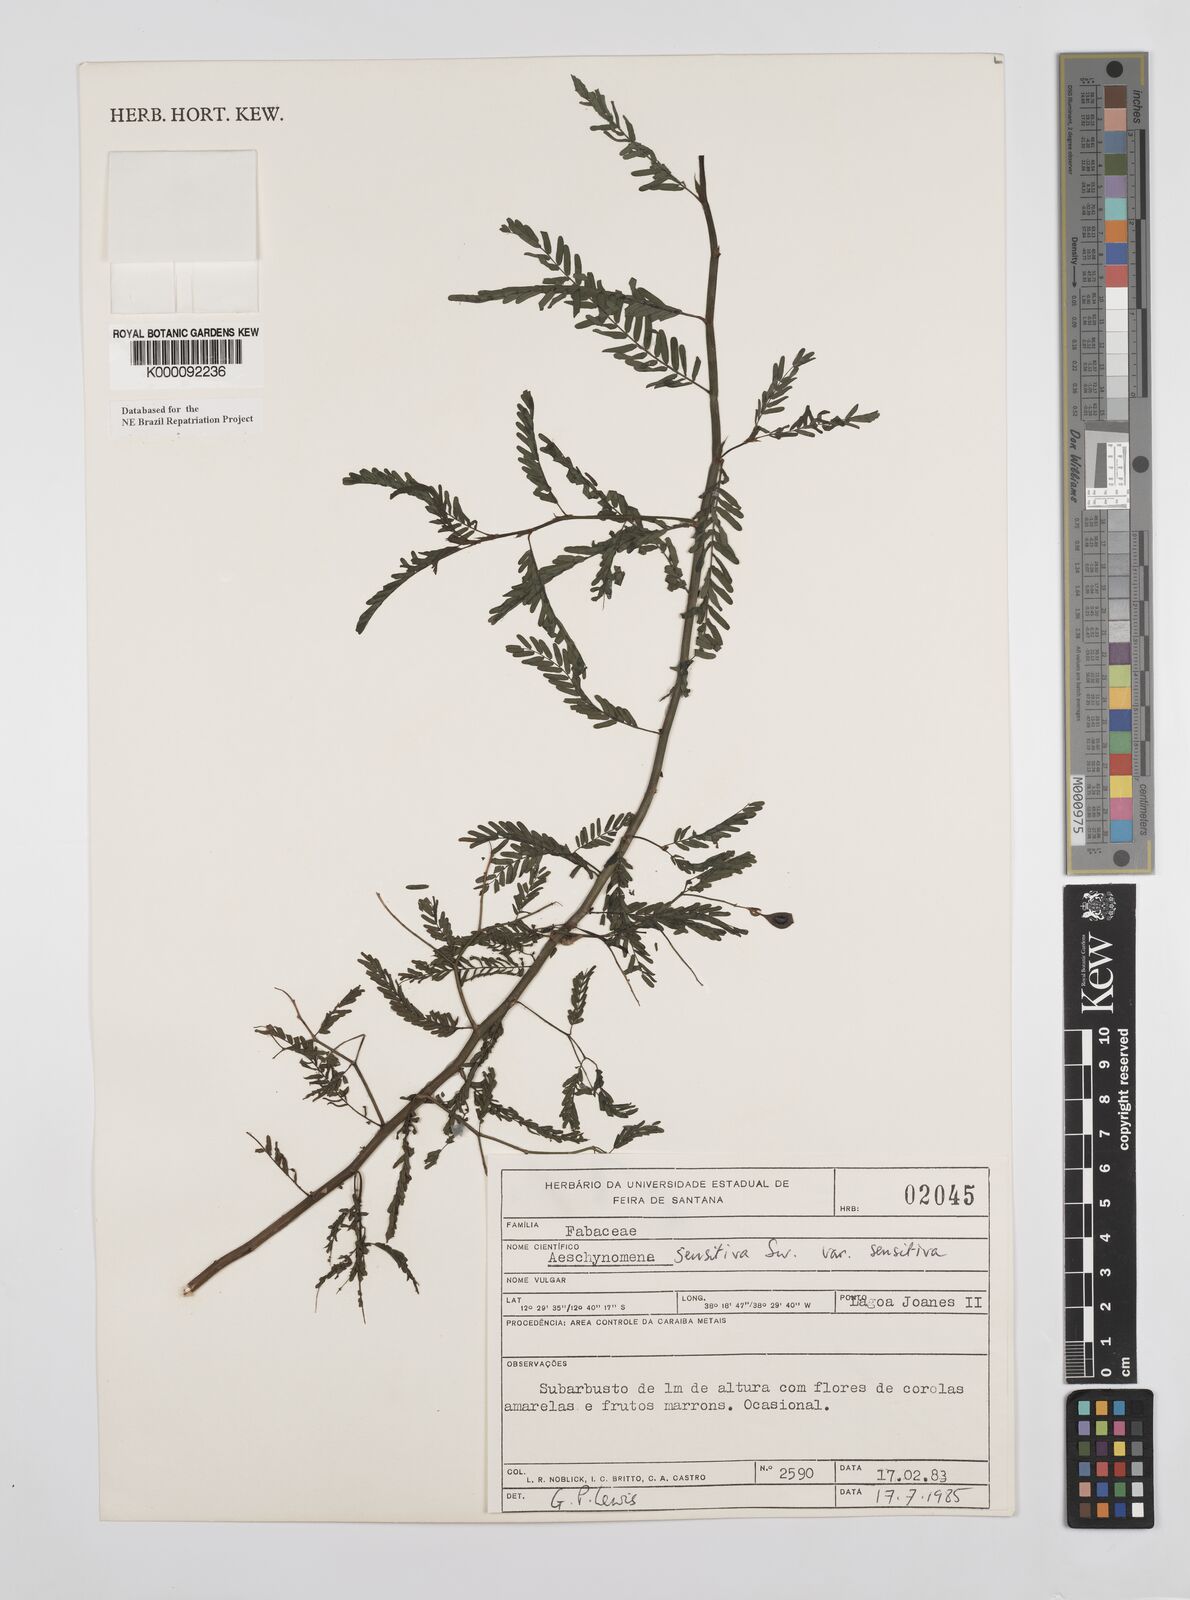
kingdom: Plantae
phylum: Tracheophyta
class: Magnoliopsida
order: Fabales
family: Fabaceae
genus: Aeschynomene
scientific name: Aeschynomene sensitiva
